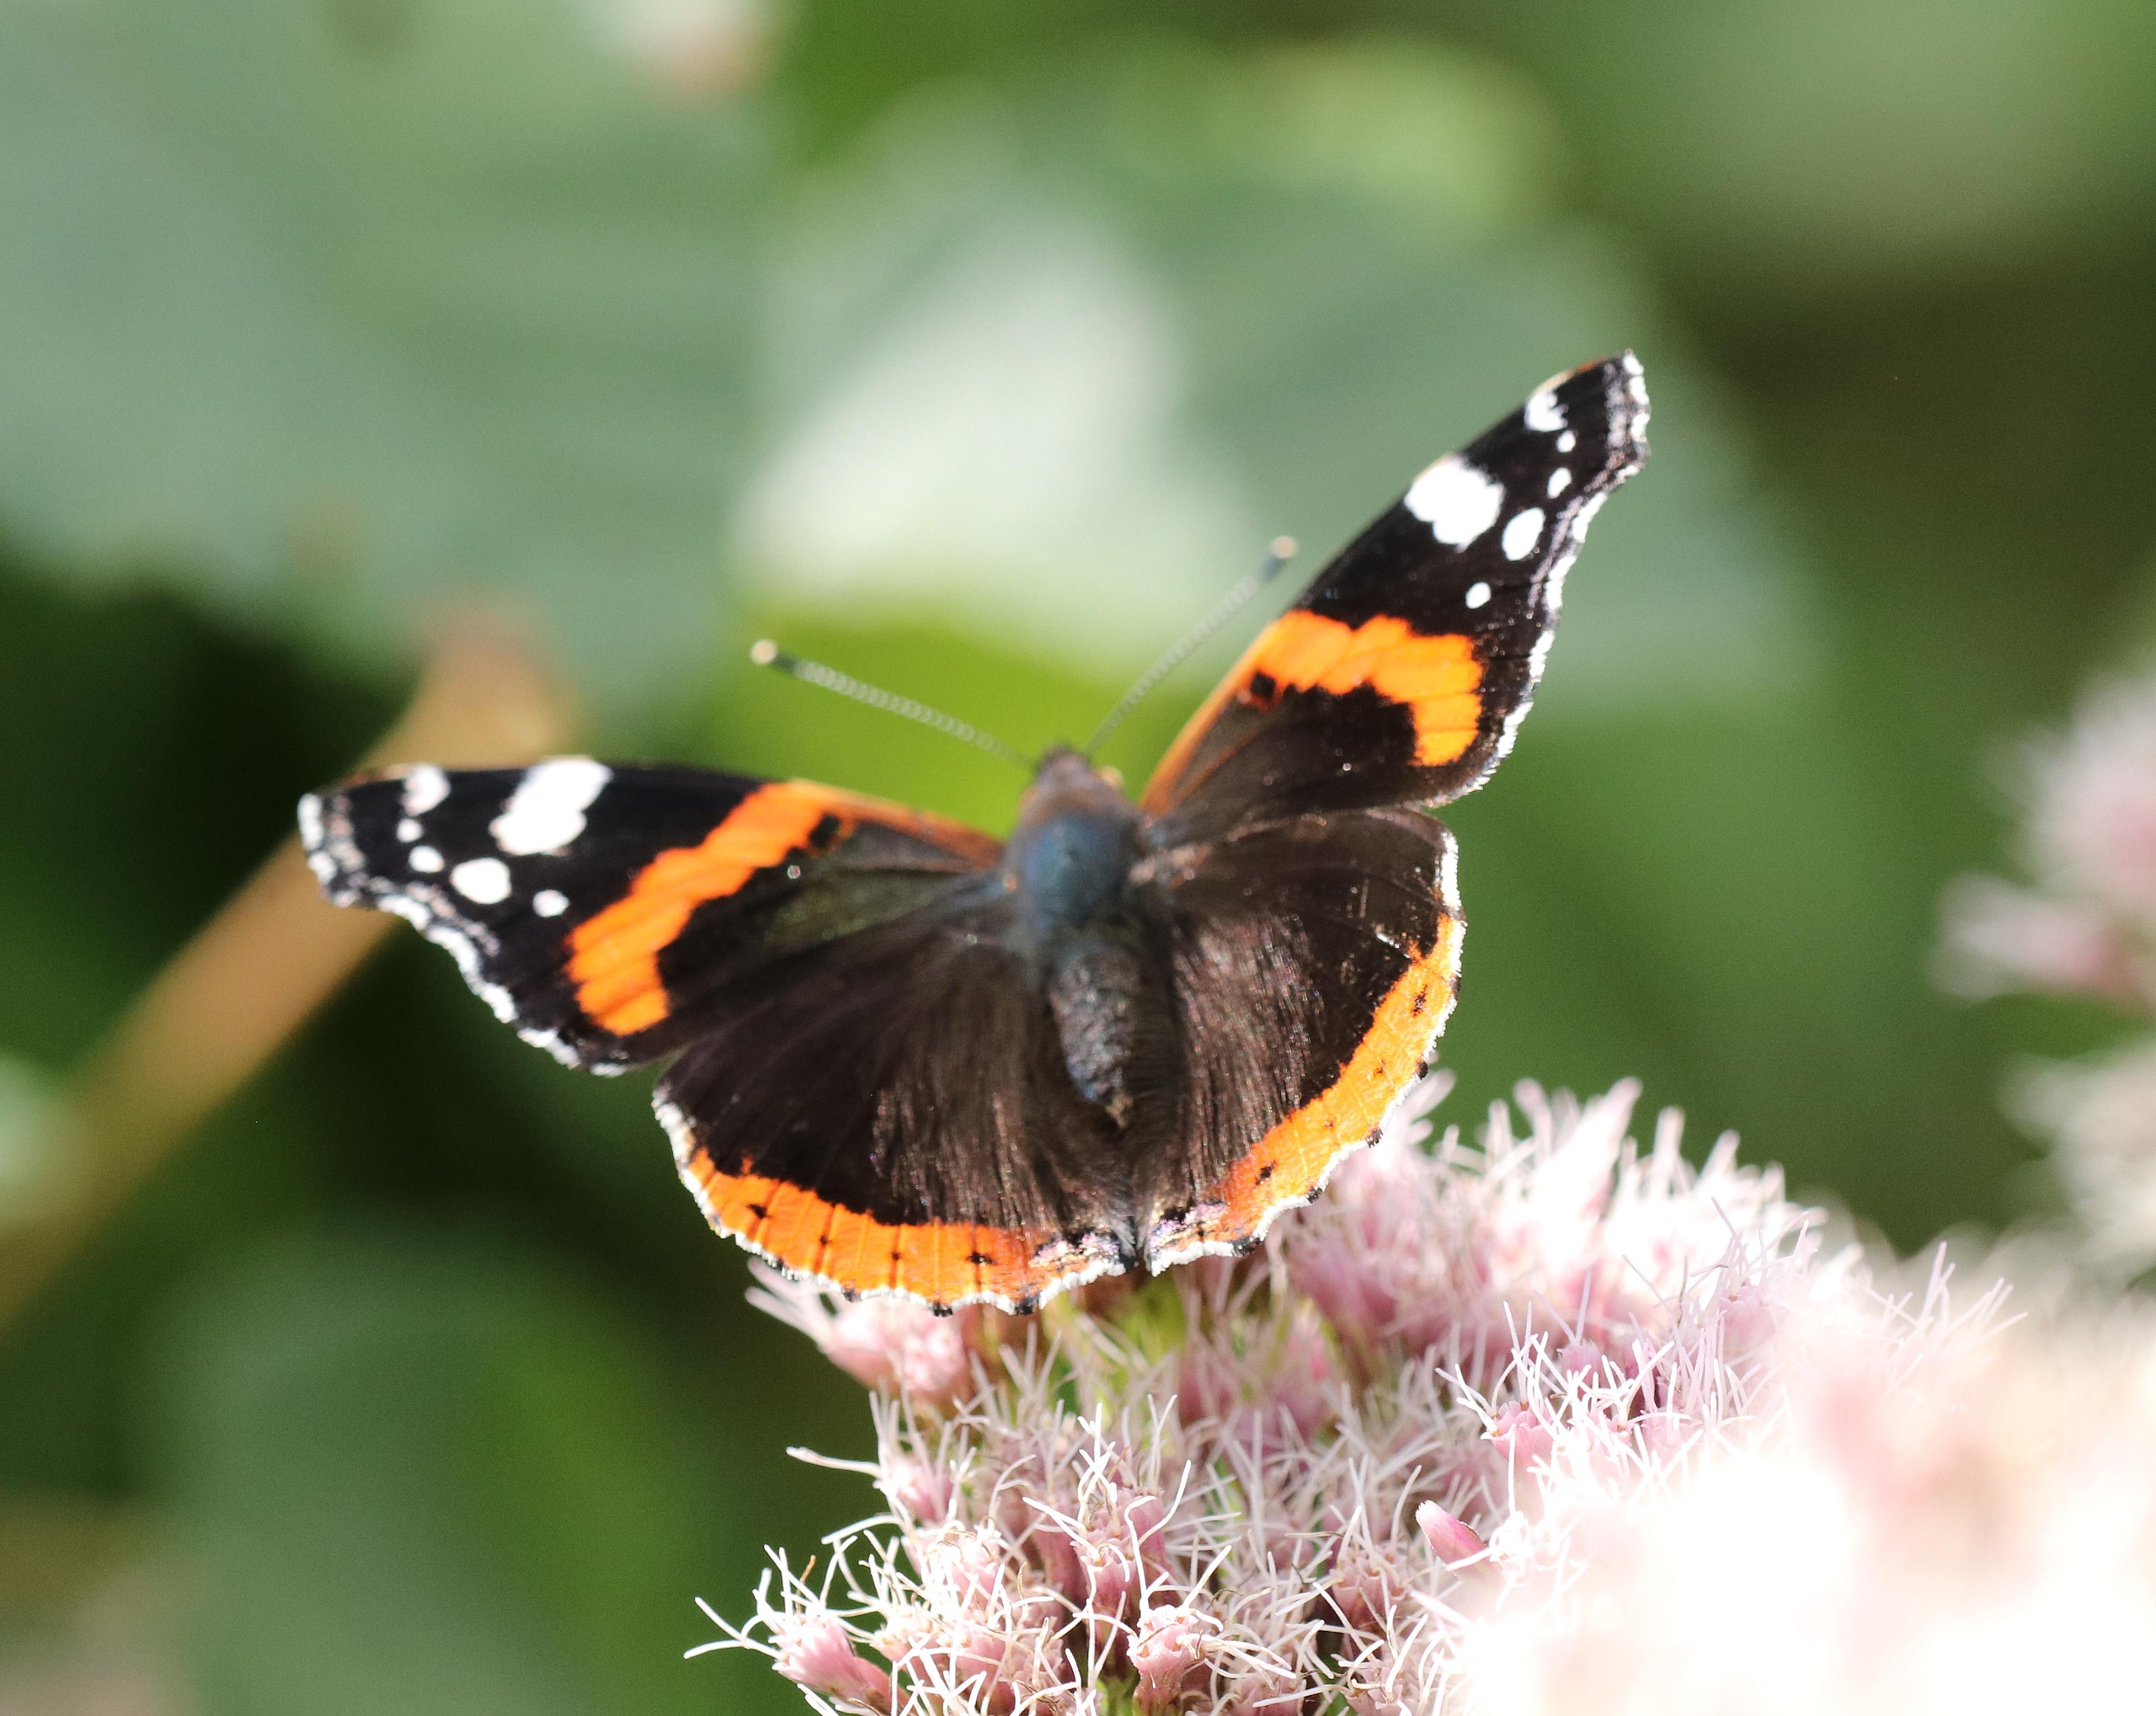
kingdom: Animalia
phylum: Arthropoda
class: Insecta
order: Lepidoptera
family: Nymphalidae
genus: Vanessa
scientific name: Vanessa atalanta
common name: Admiral
